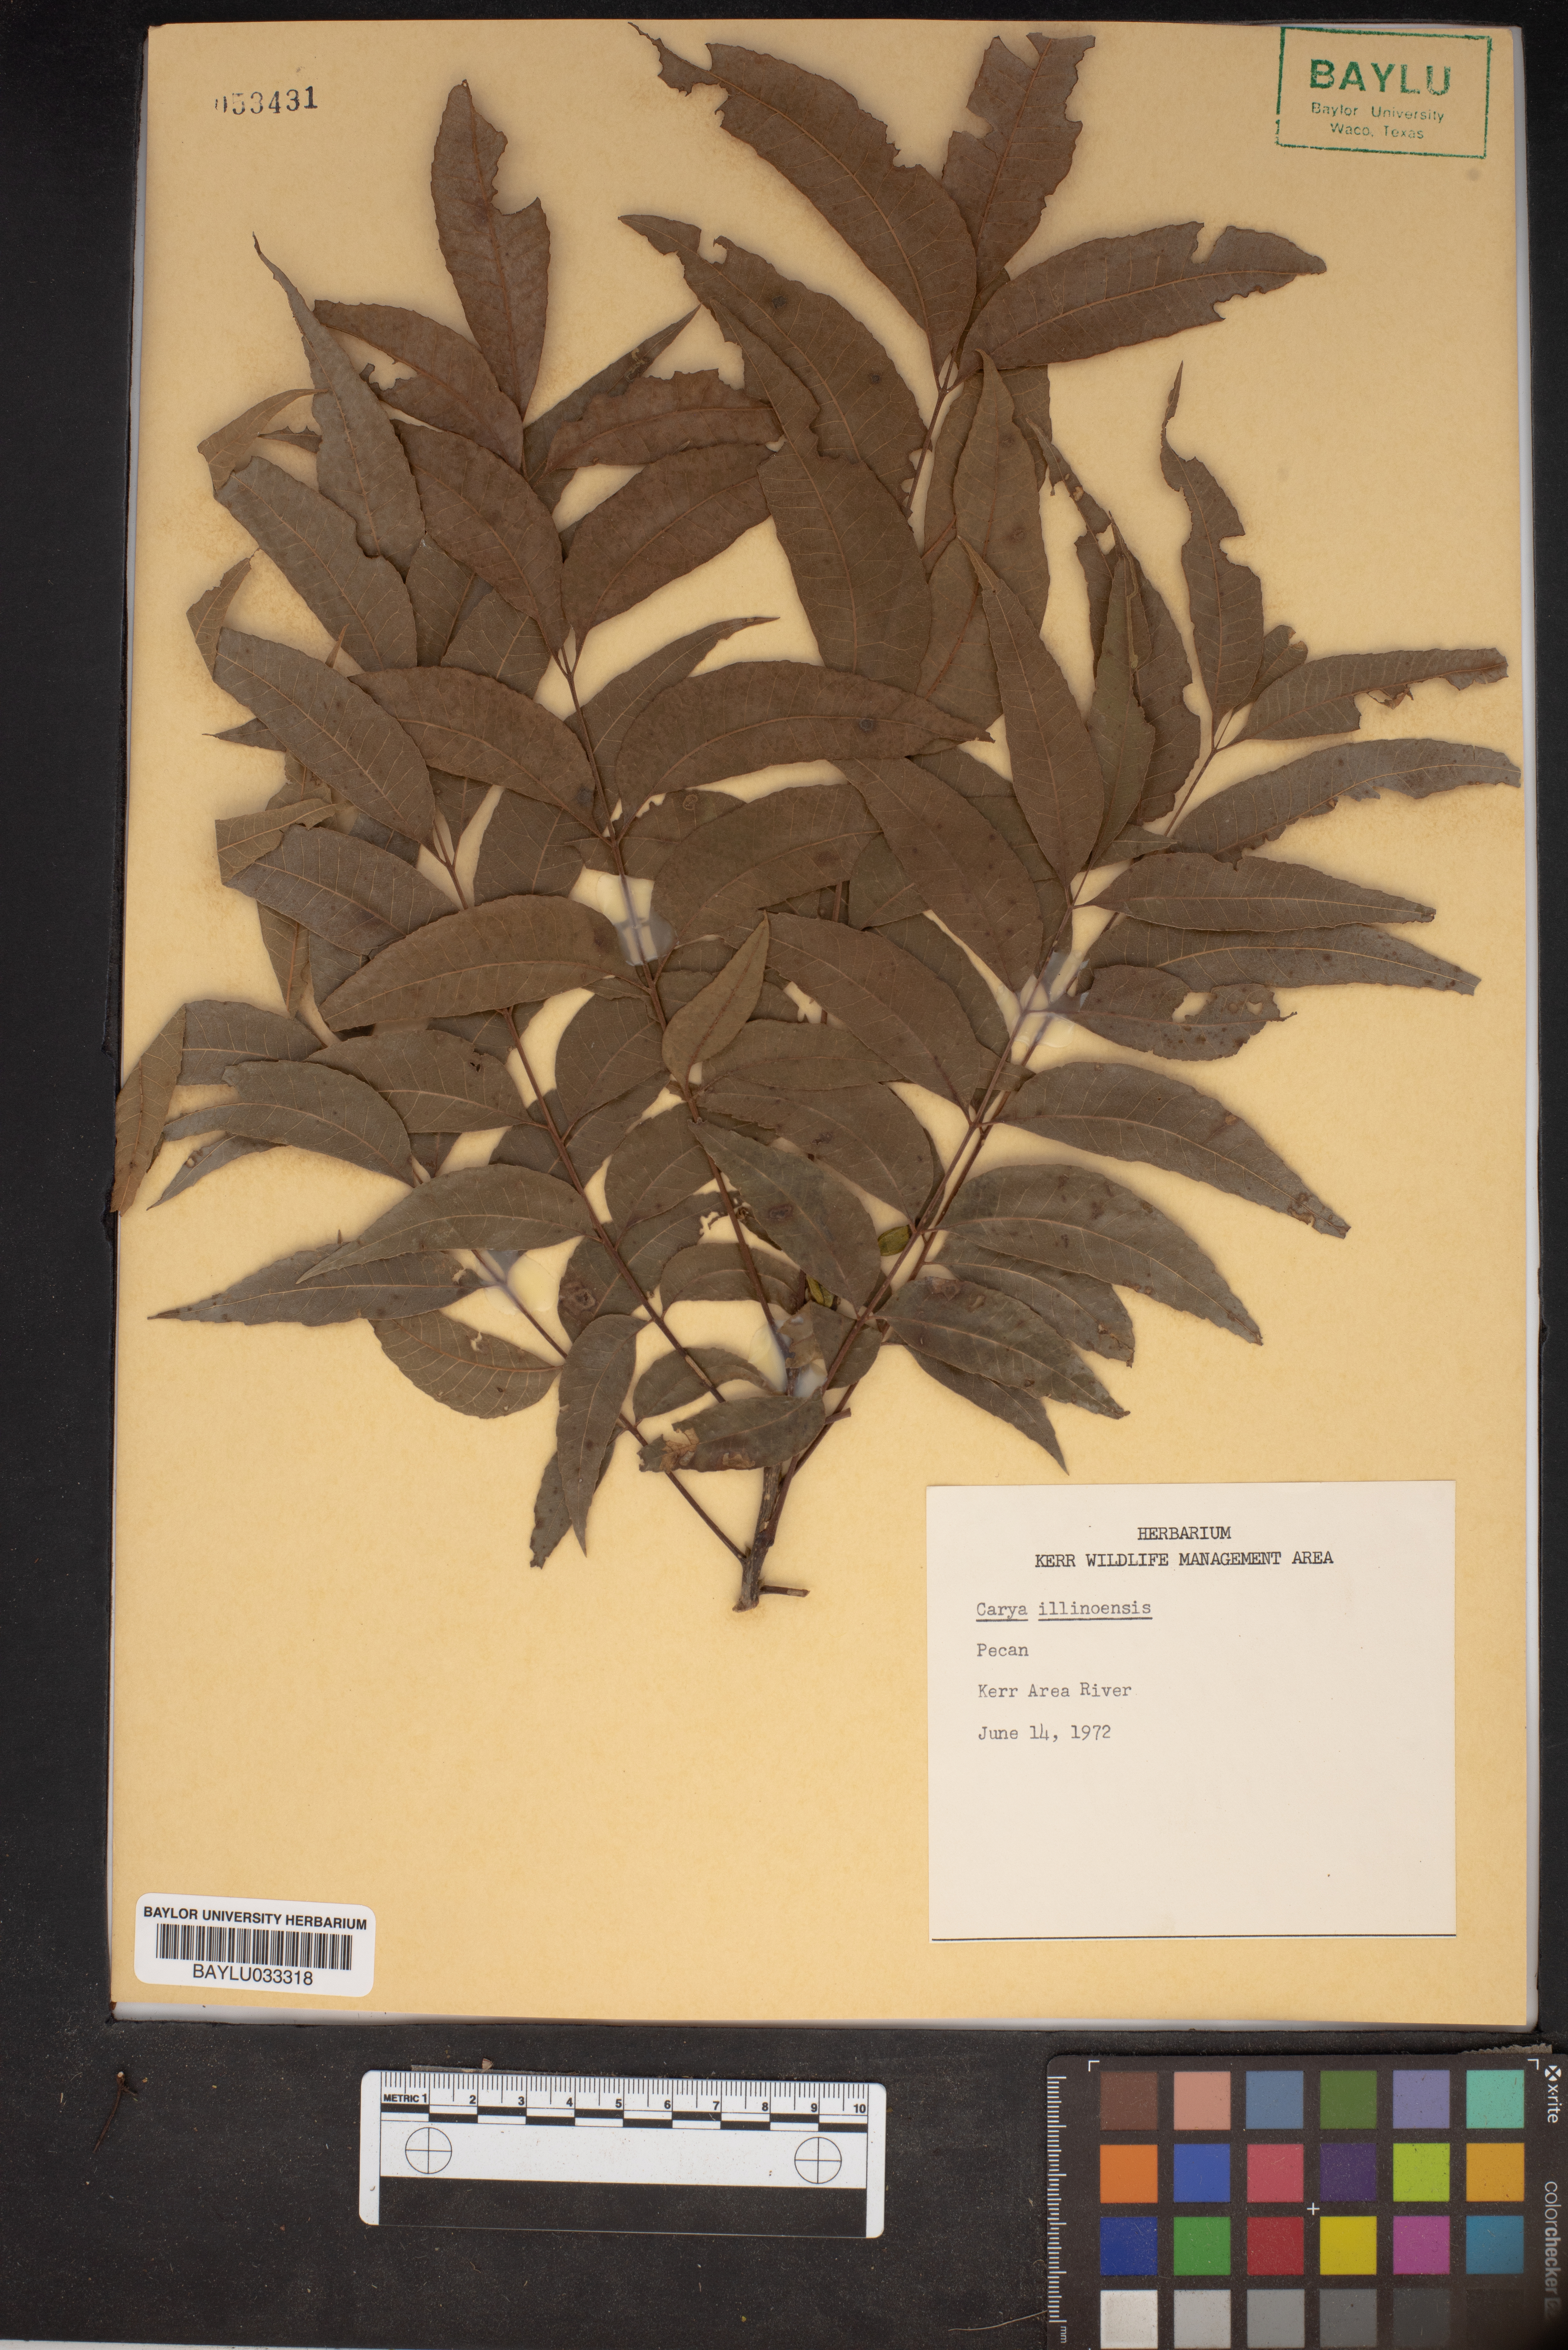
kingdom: Plantae
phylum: Tracheophyta
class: Magnoliopsida
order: Fagales
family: Juglandaceae
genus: Carya
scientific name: Carya
